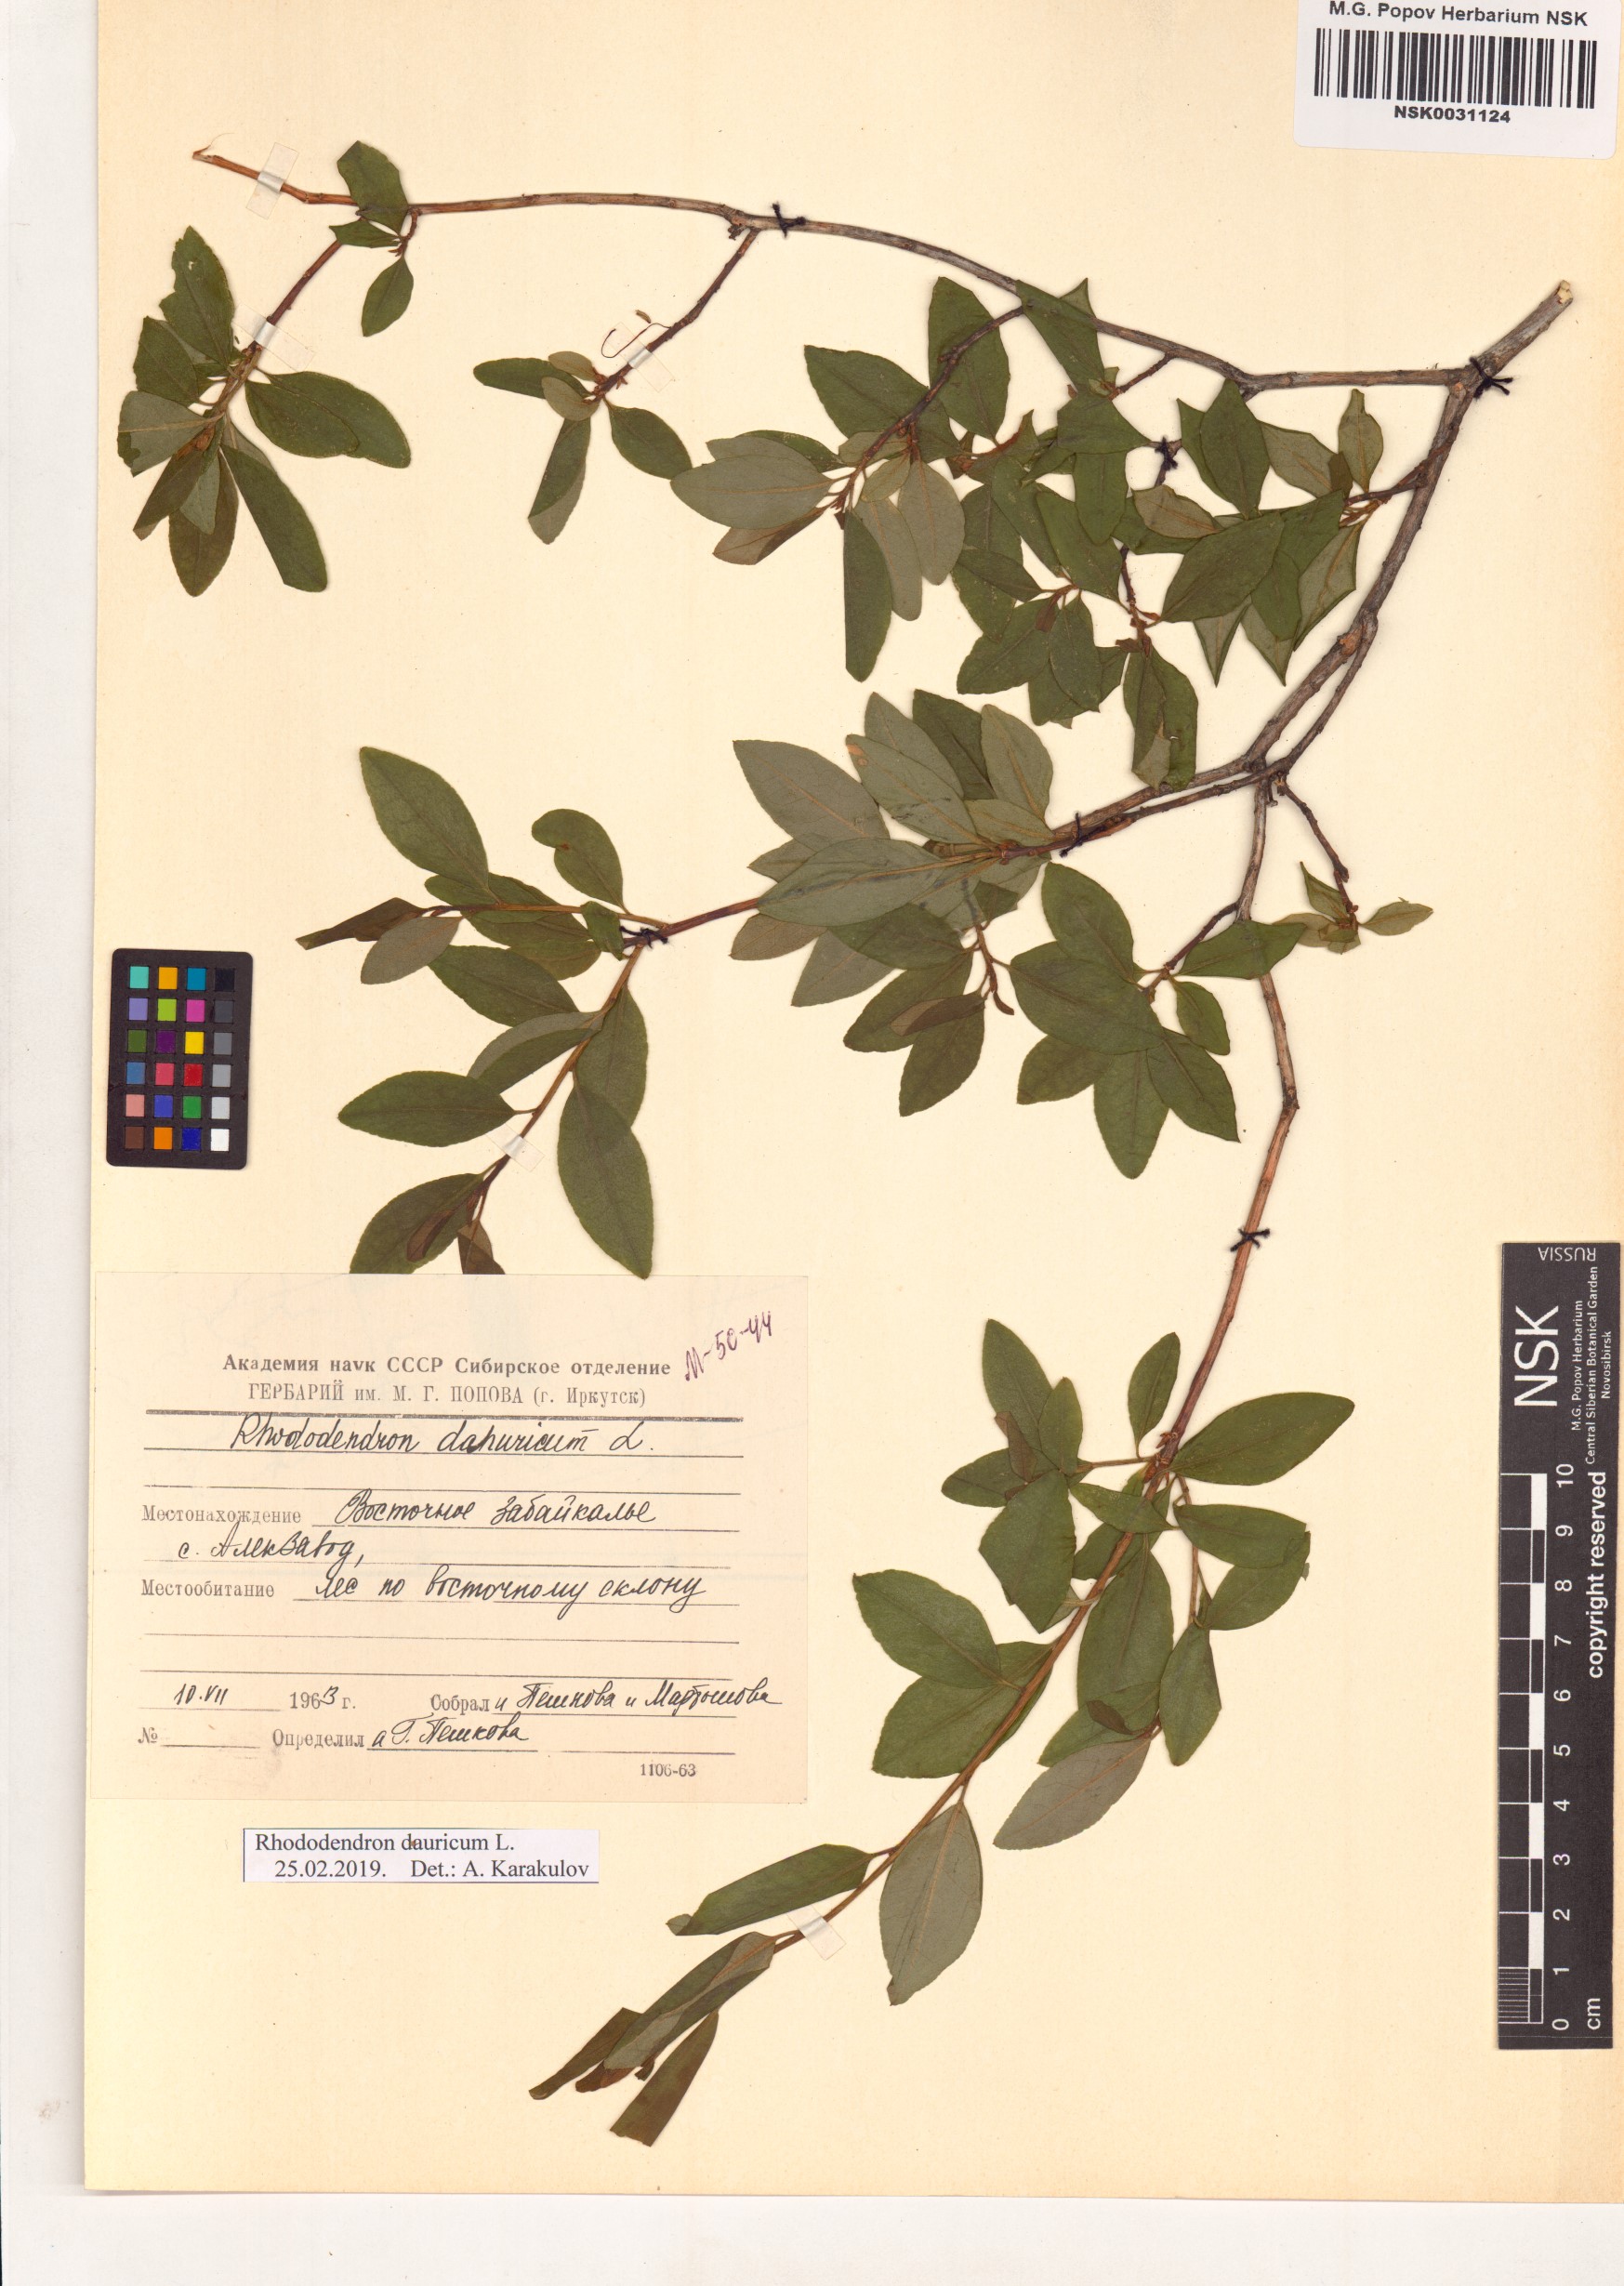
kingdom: Plantae
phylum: Tracheophyta
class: Magnoliopsida
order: Ericales
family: Ericaceae
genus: Rhododendron
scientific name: Rhododendron dauricum
